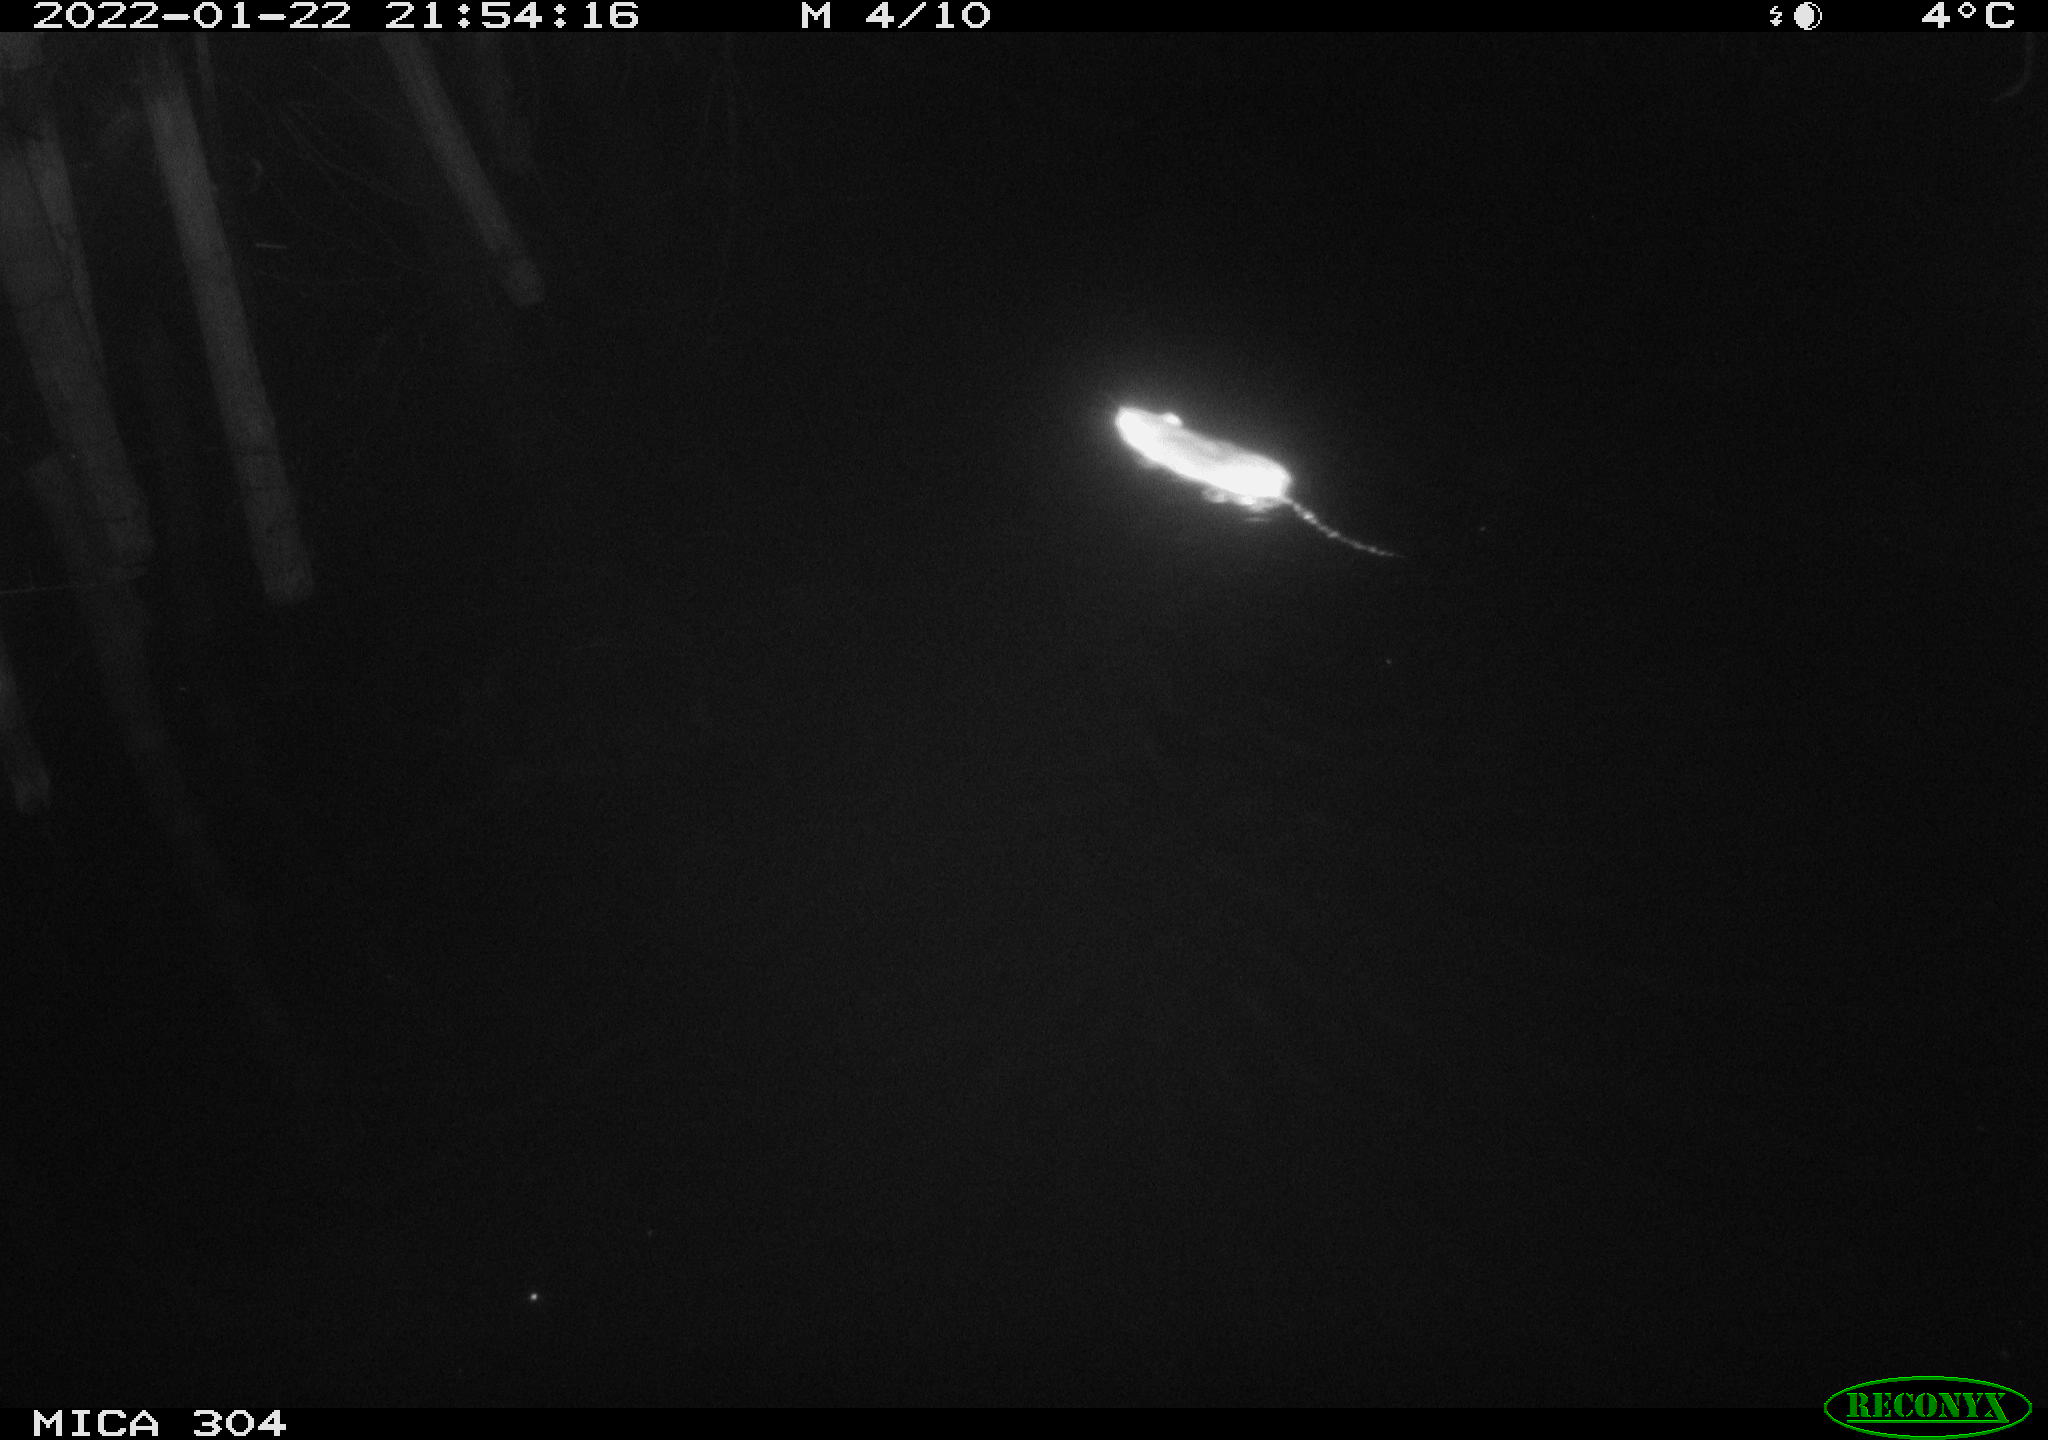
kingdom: Animalia
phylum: Chordata
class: Mammalia
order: Rodentia
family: Muridae
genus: Rattus
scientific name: Rattus norvegicus
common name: Brown rat
